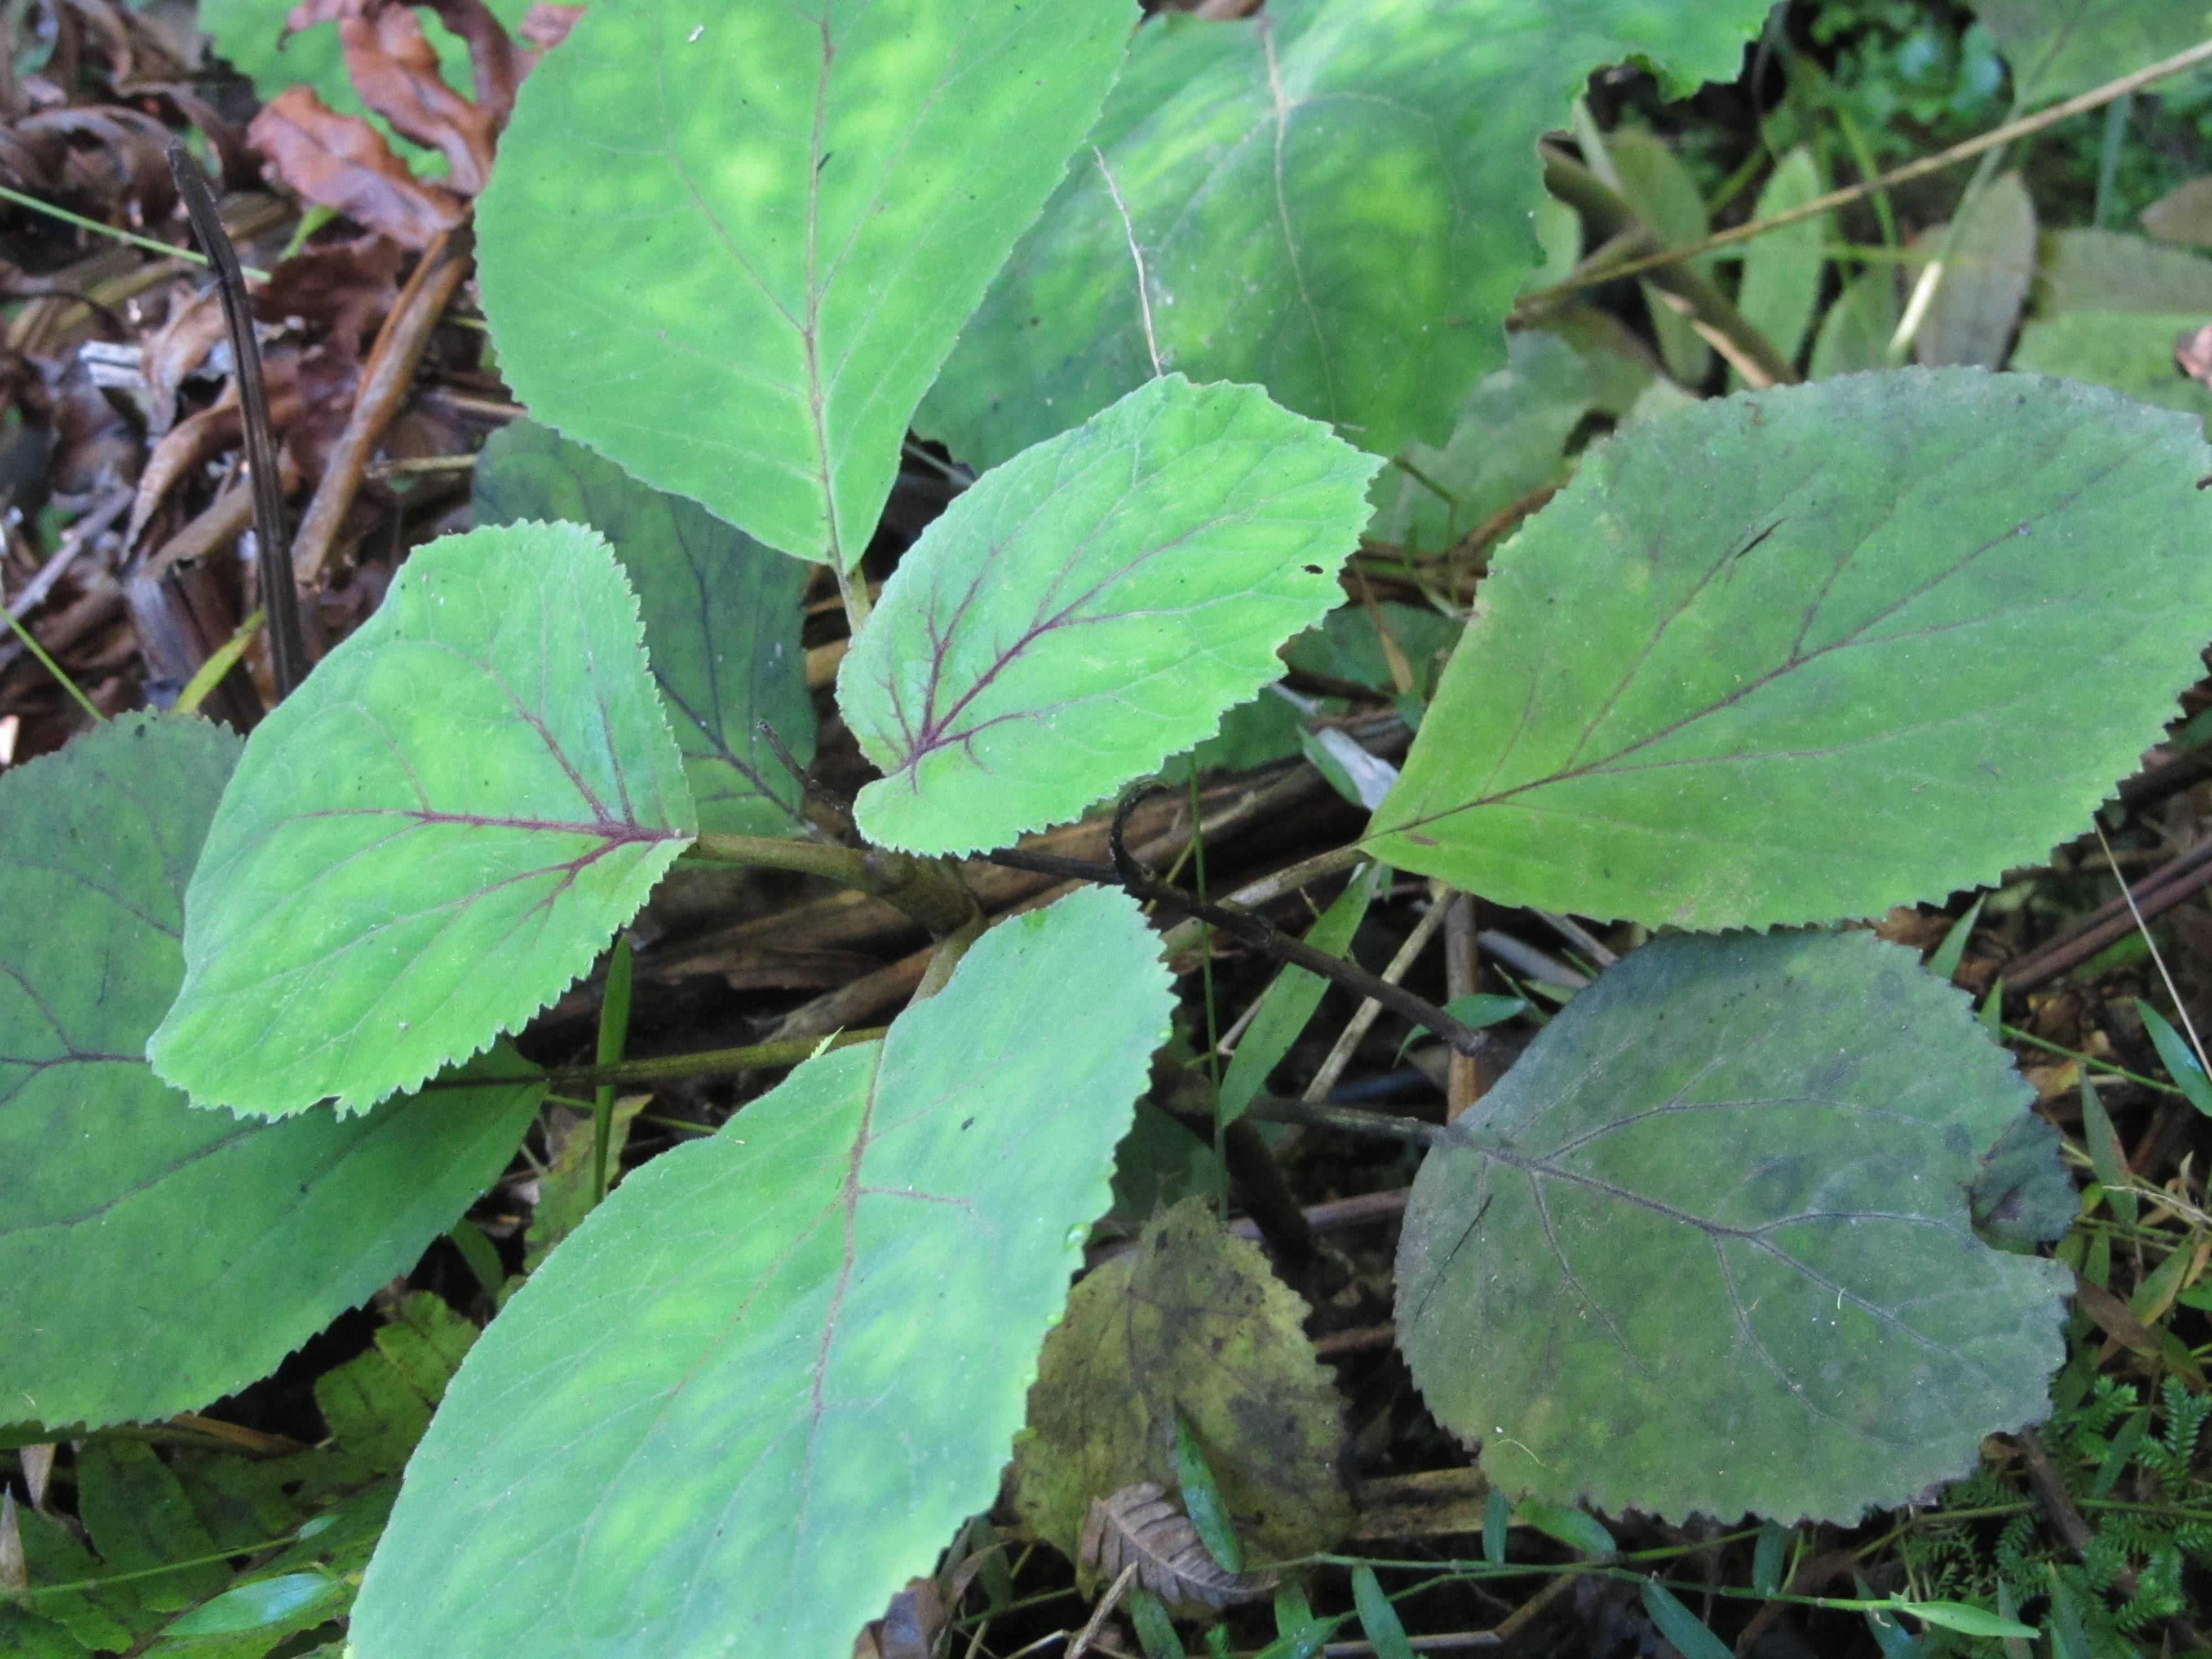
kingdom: Plantae
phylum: Tracheophyta
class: Magnoliopsida
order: Asterales
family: Asteraceae
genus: Bartlettina
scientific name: Bartlettina sordida
